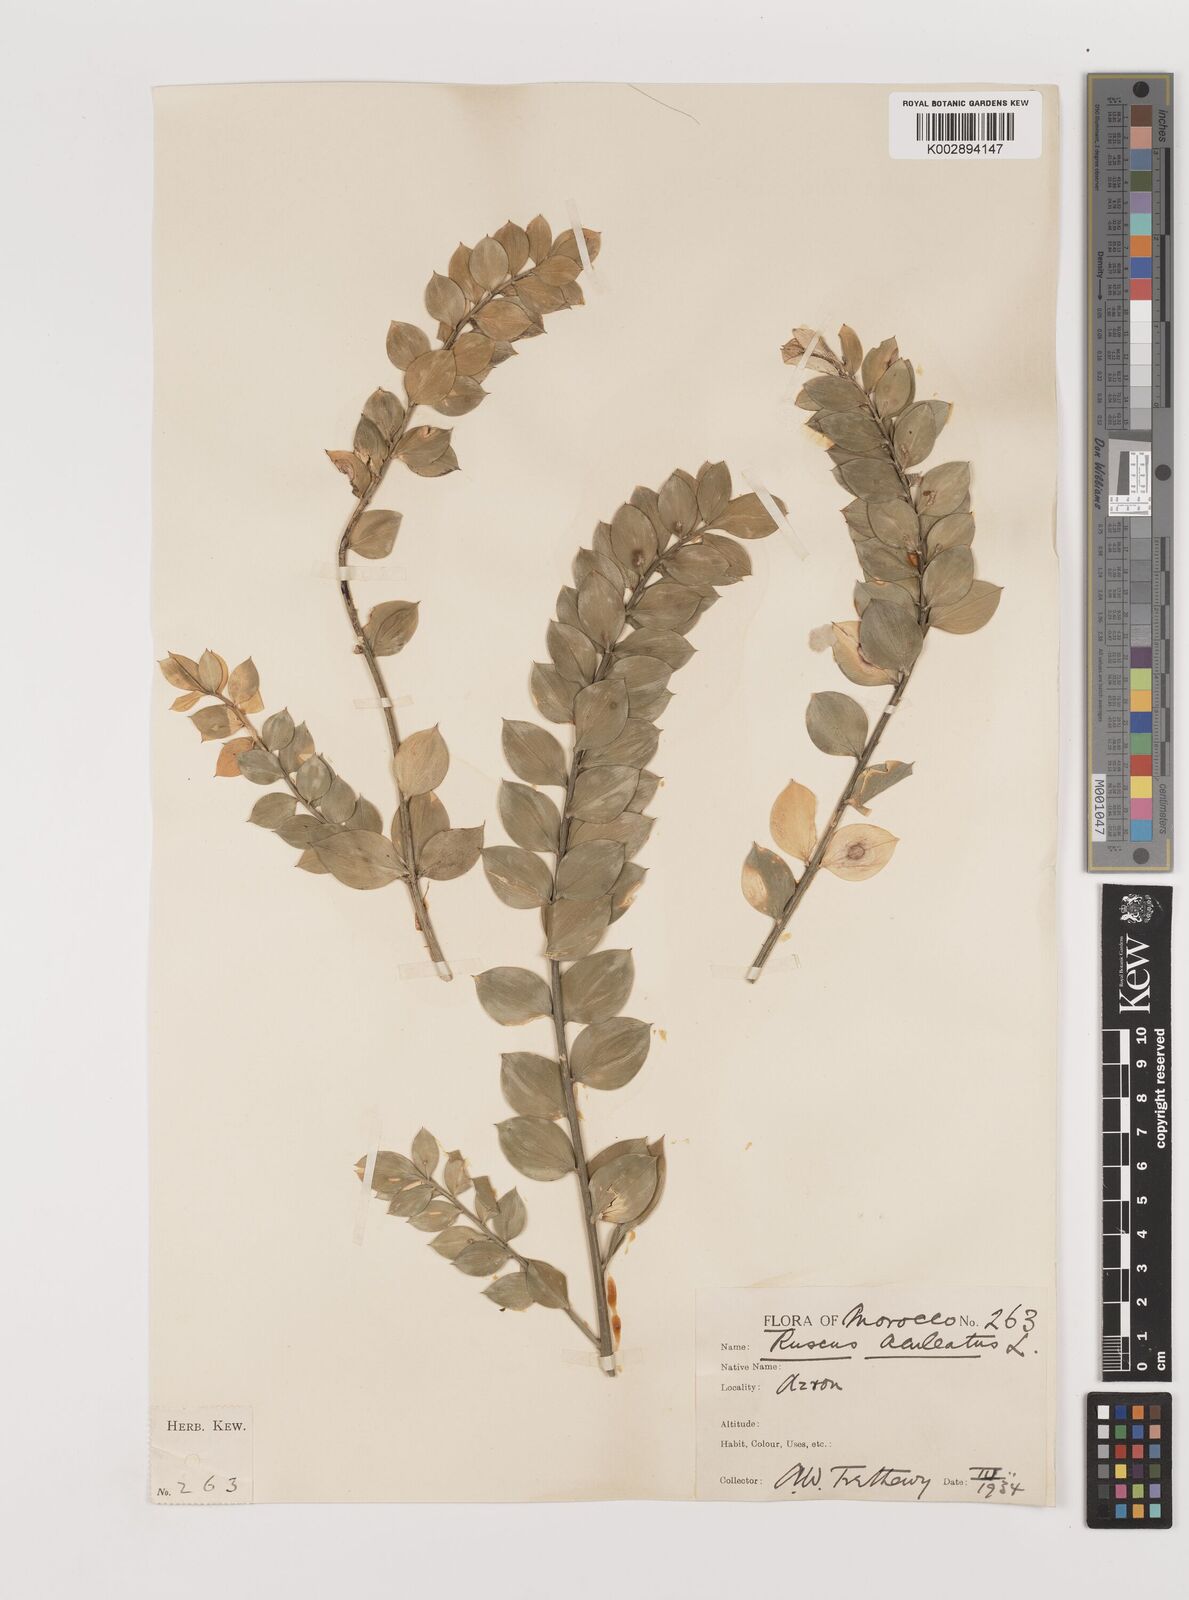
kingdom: Plantae
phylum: Tracheophyta
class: Liliopsida
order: Asparagales
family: Asparagaceae
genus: Ruscus
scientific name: Ruscus aculeatus
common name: Butcher's-broom
